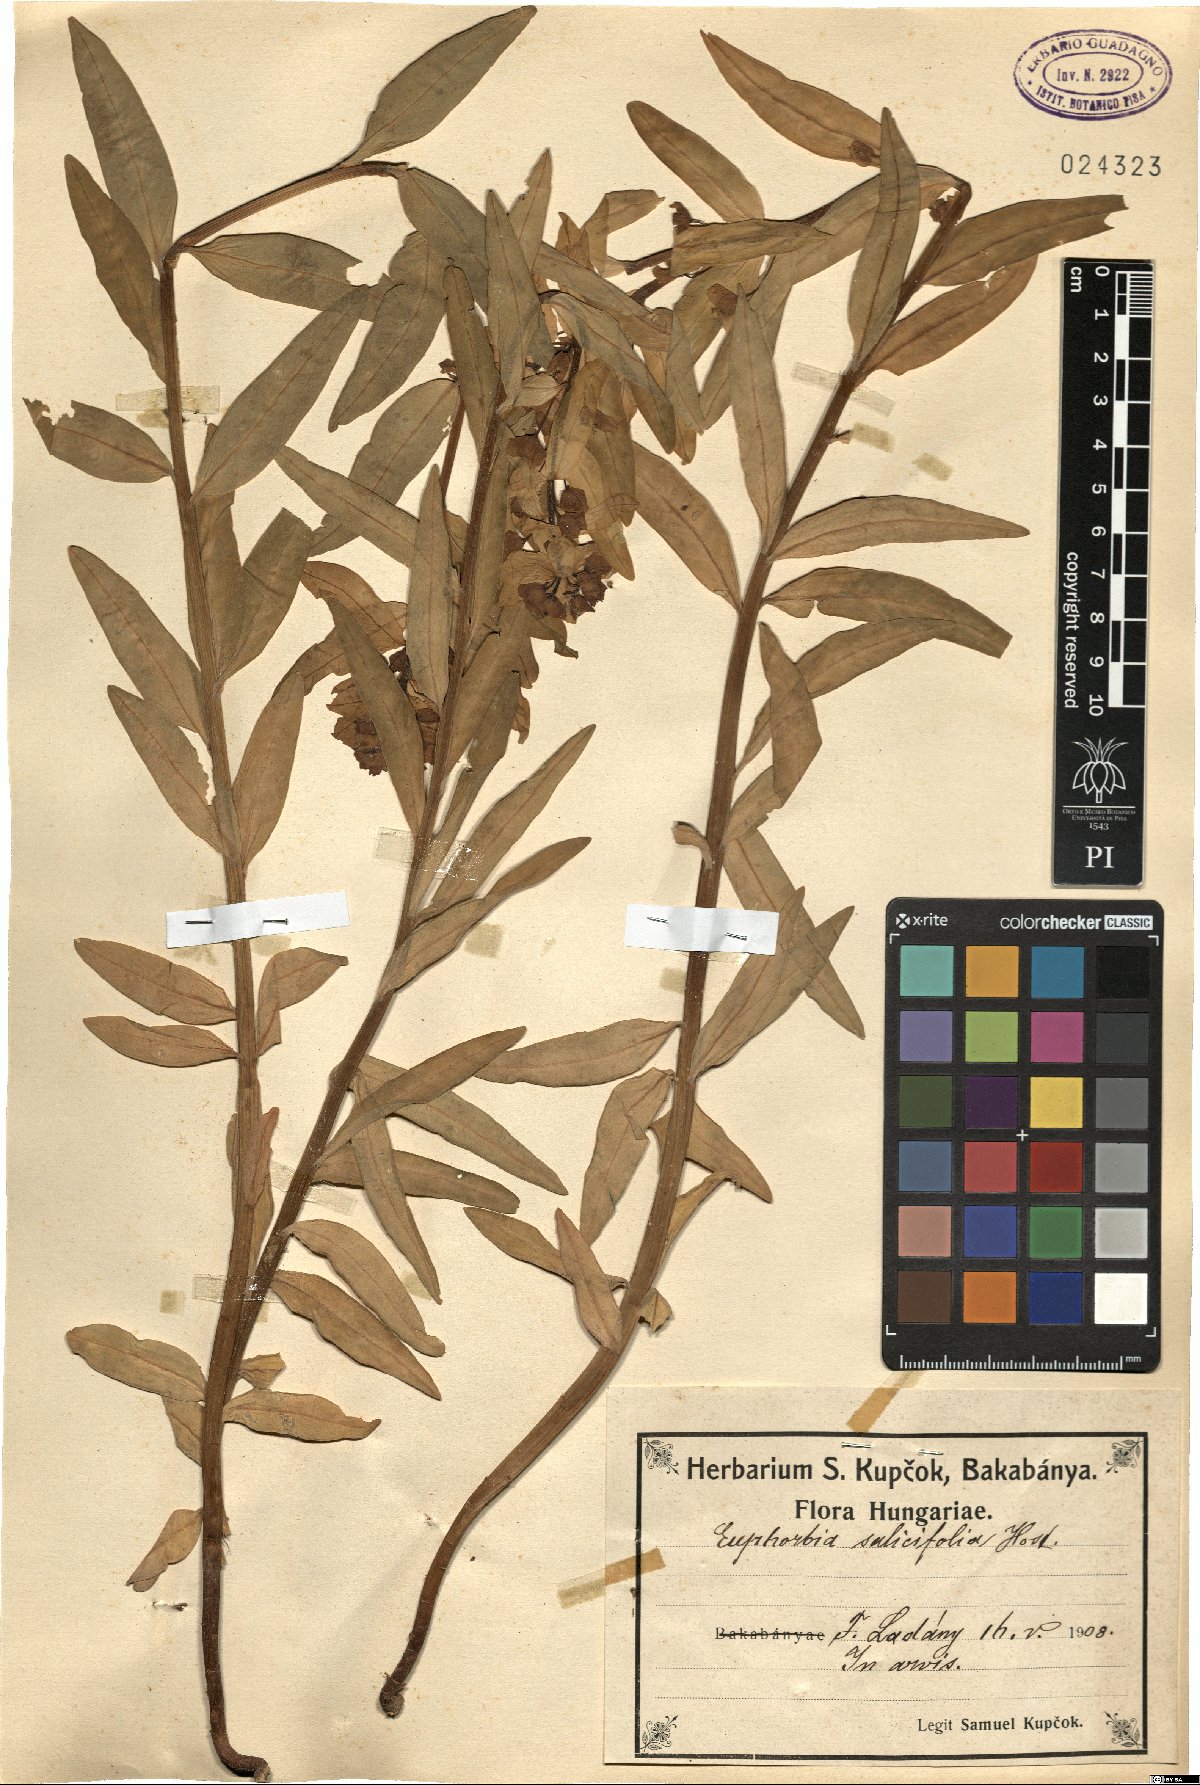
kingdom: Plantae
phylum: Tracheophyta
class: Magnoliopsida
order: Malpighiales
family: Euphorbiaceae
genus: Euphorbia
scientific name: Euphorbia salicifolia
